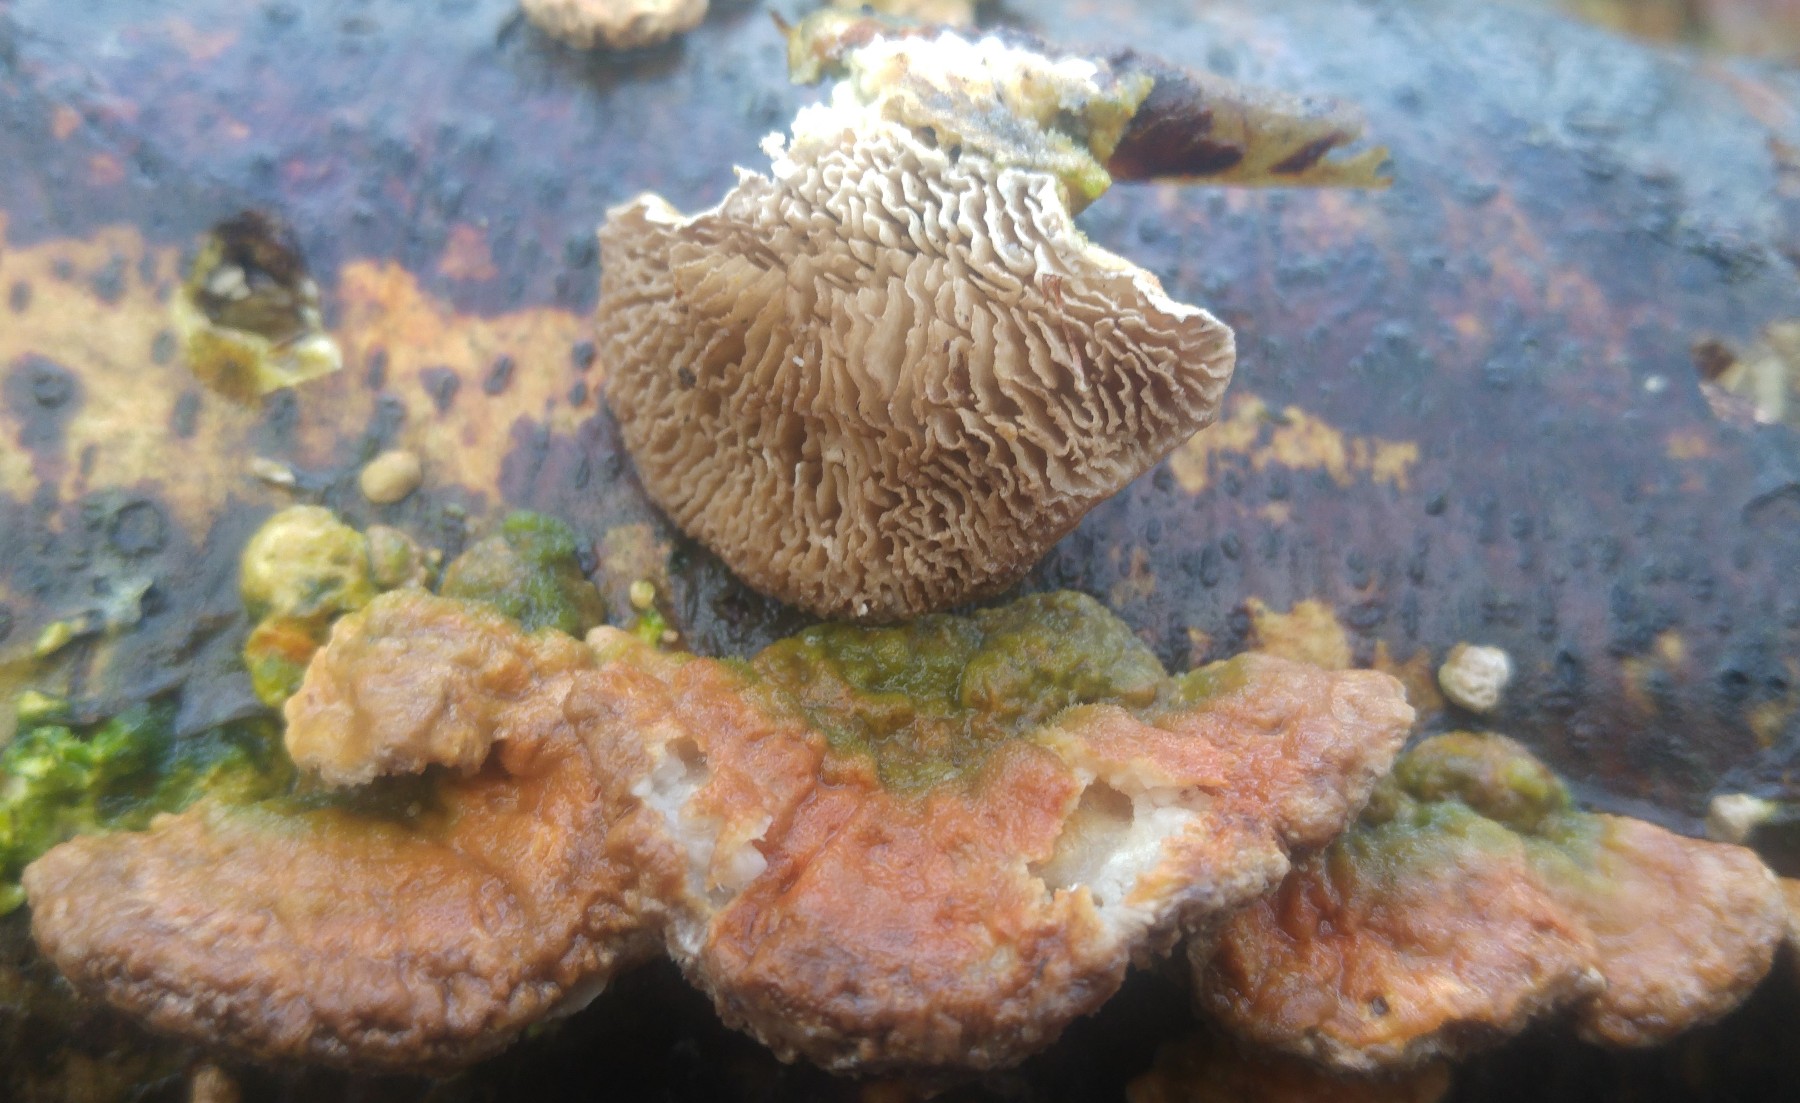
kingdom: Fungi
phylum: Basidiomycota
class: Agaricomycetes
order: Polyporales
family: Polyporaceae
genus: Lenzites
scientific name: Lenzites betulinus
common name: birke-læderporesvamp
